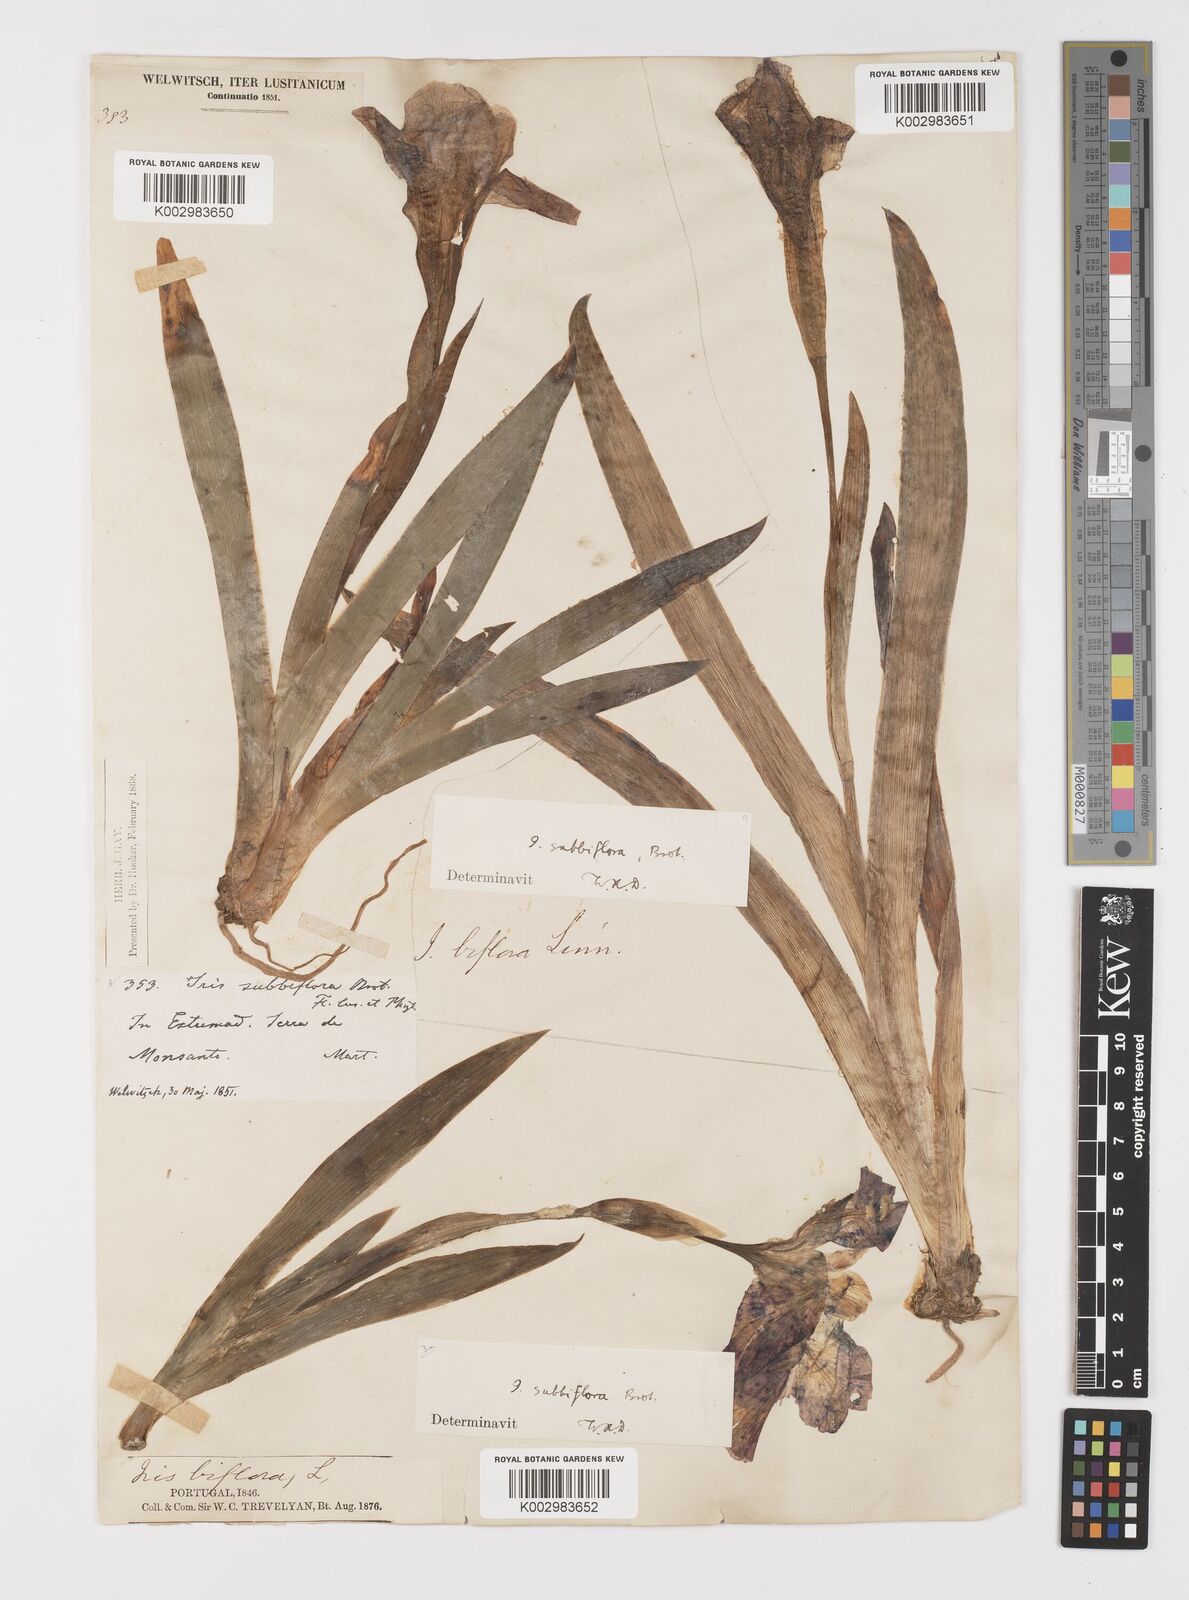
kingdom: Plantae
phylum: Tracheophyta
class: Liliopsida
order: Asparagales
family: Iridaceae
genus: Iris
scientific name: Iris lutescens
